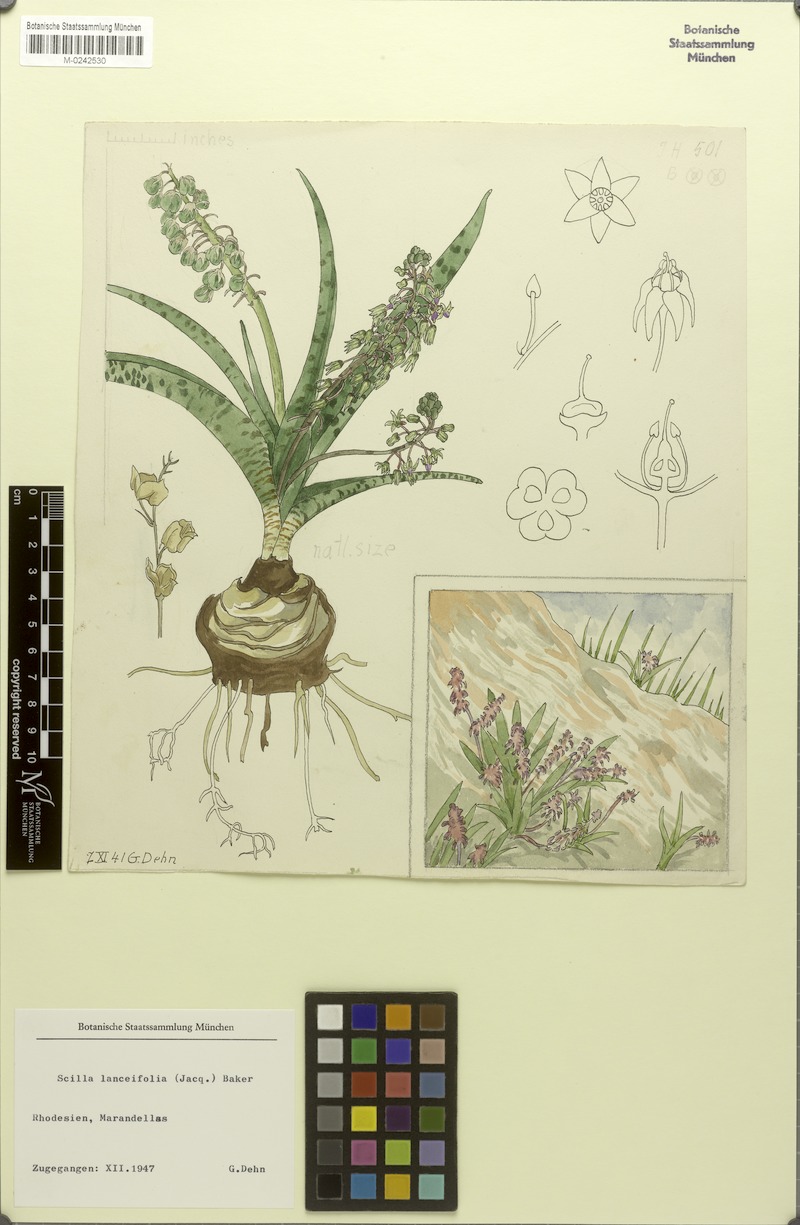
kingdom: Plantae
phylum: Tracheophyta
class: Liliopsida
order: Asparagales
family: Asparagaceae
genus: Ledebouria
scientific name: Ledebouria revoluta
